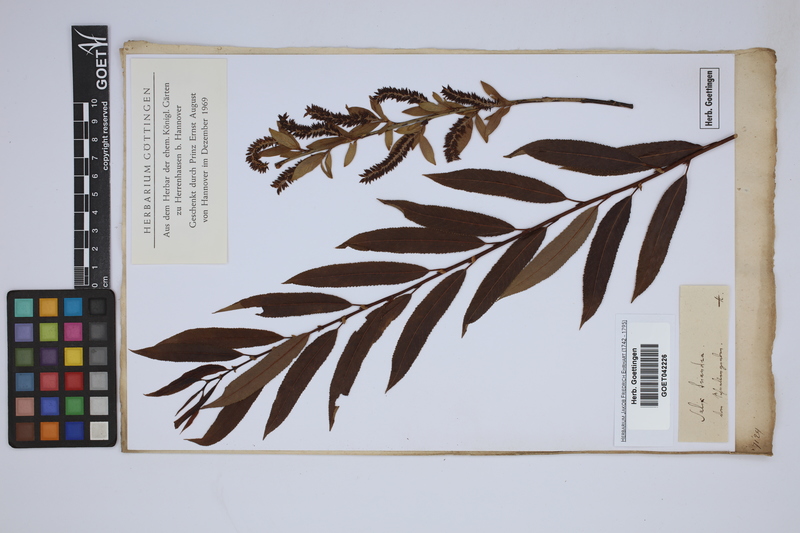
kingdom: Plantae
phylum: Tracheophyta
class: Magnoliopsida
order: Malpighiales
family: Salicaceae
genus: Salix
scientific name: Salix triandra
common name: Almond willow
